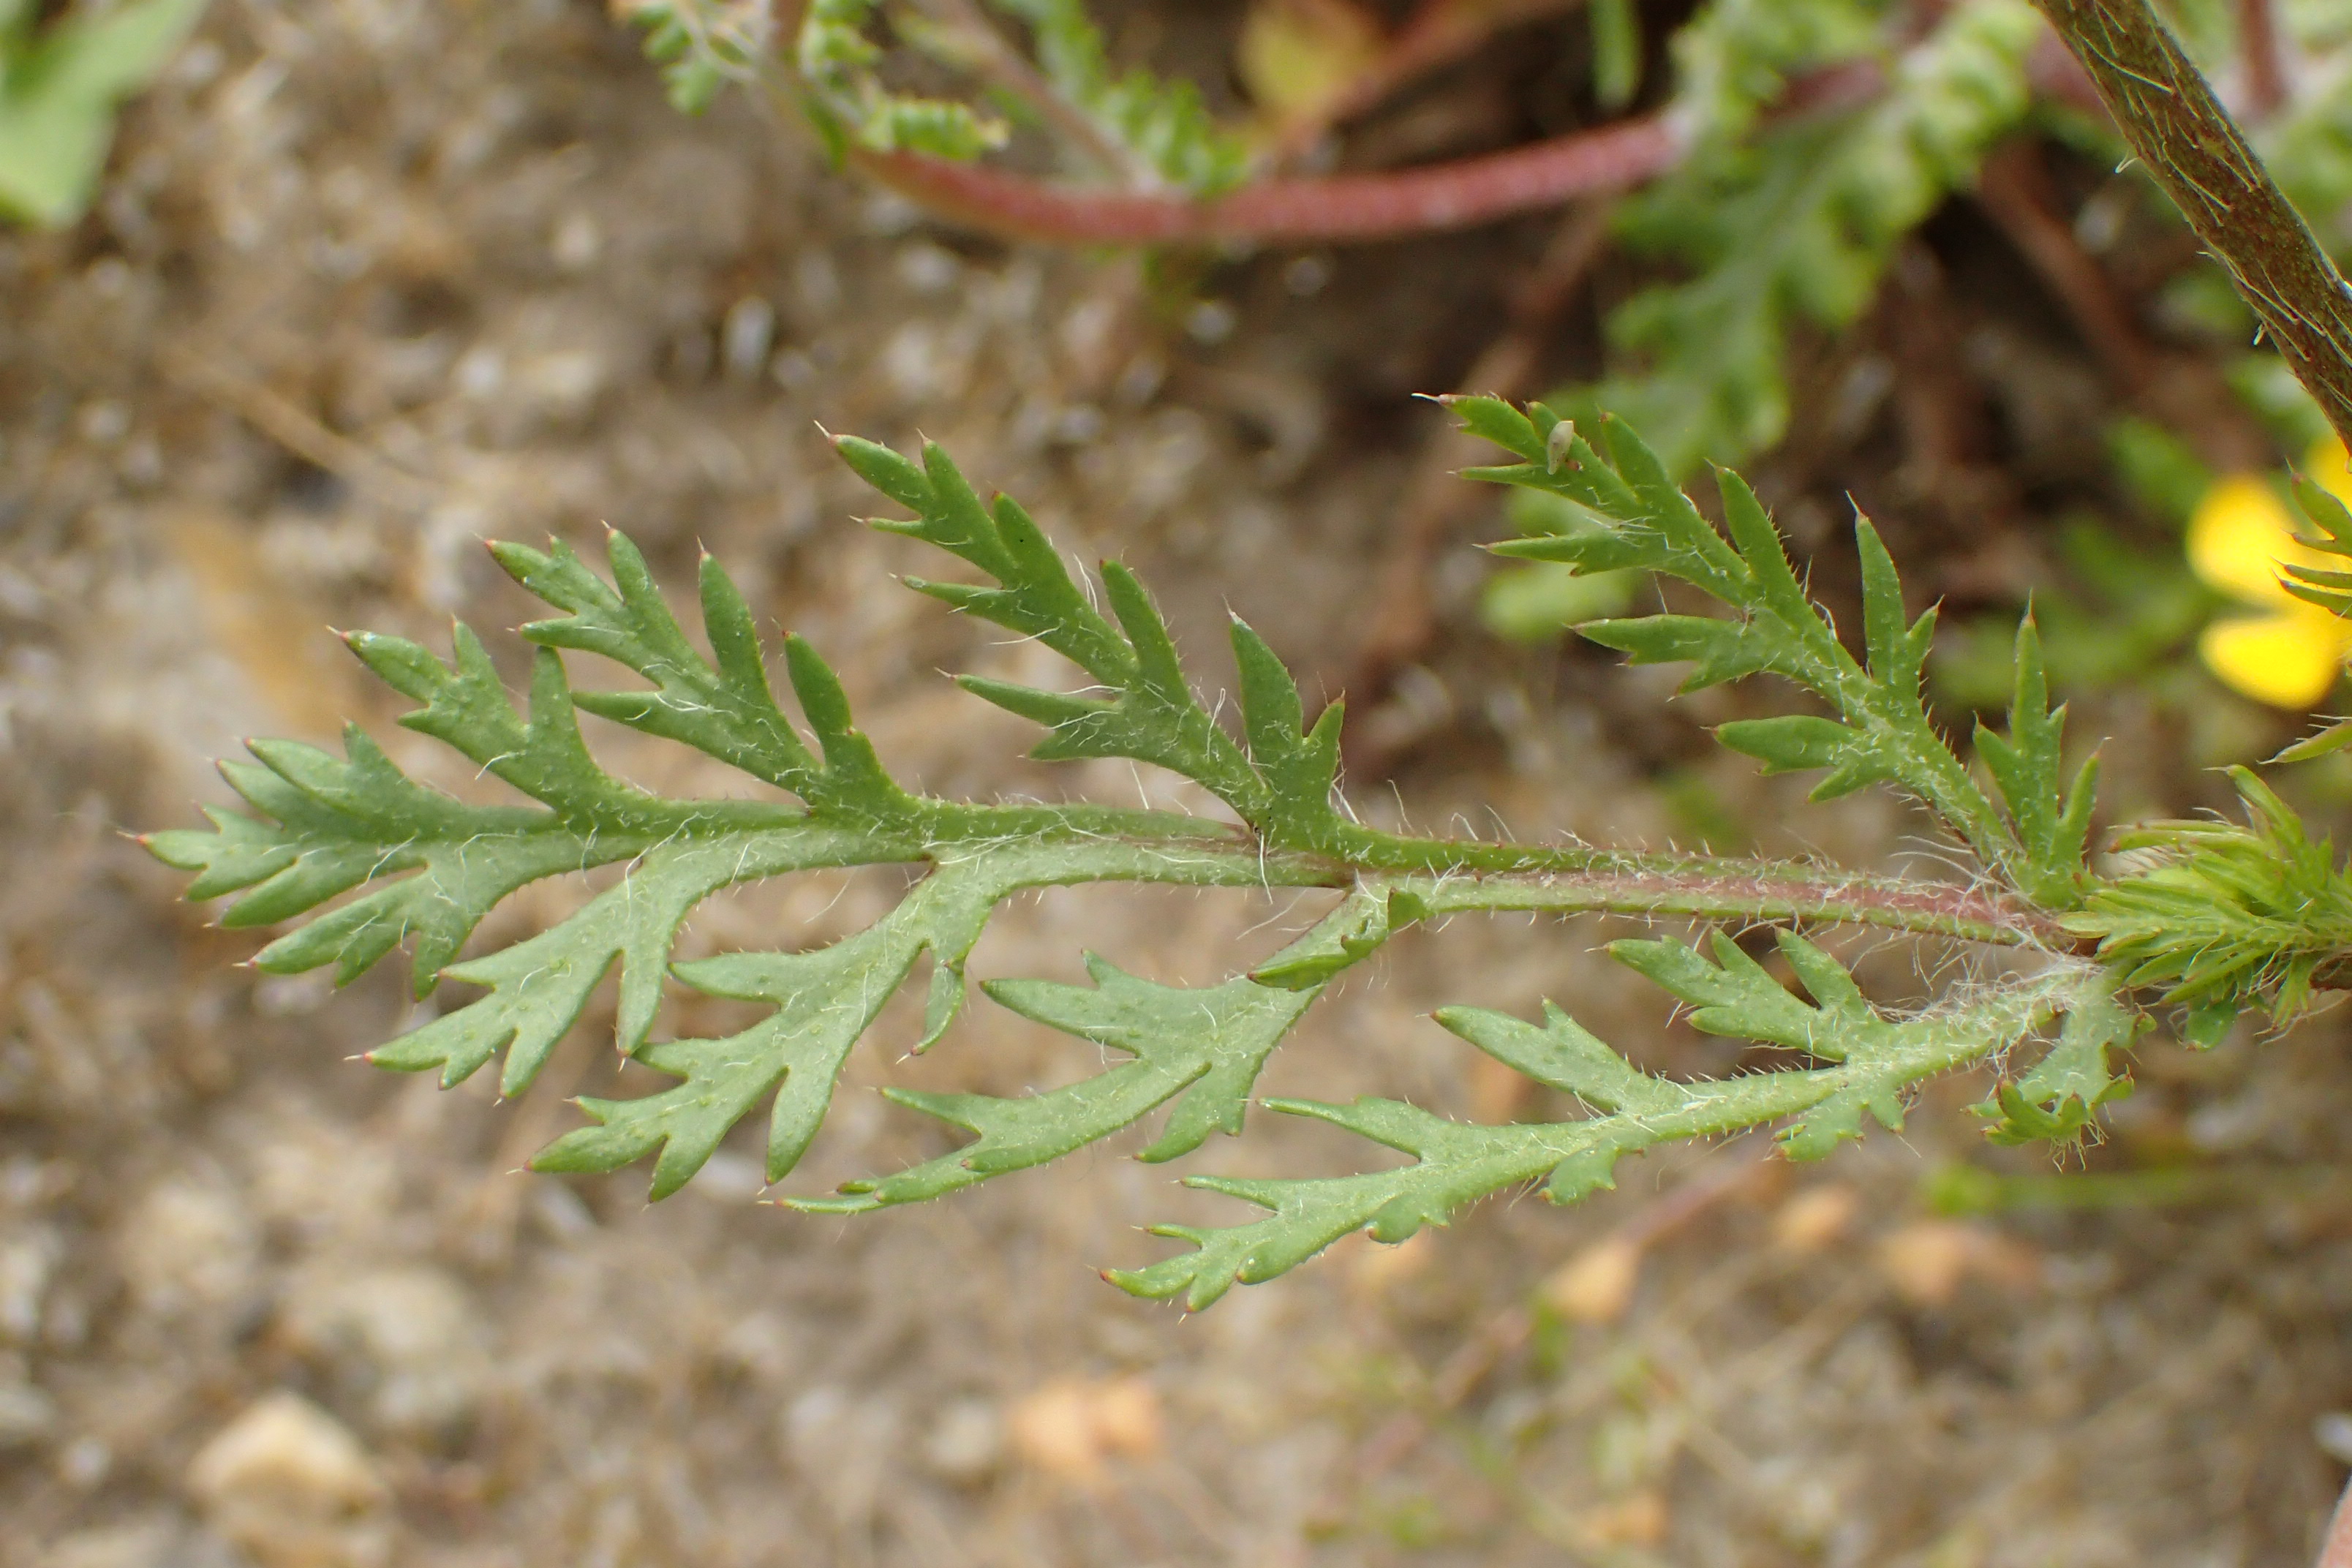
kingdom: Plantae
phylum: Tracheophyta
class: Magnoliopsida
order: Ranunculales
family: Papaveraceae
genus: Roemeria
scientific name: Roemeria argemone
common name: Kølle-valmue
